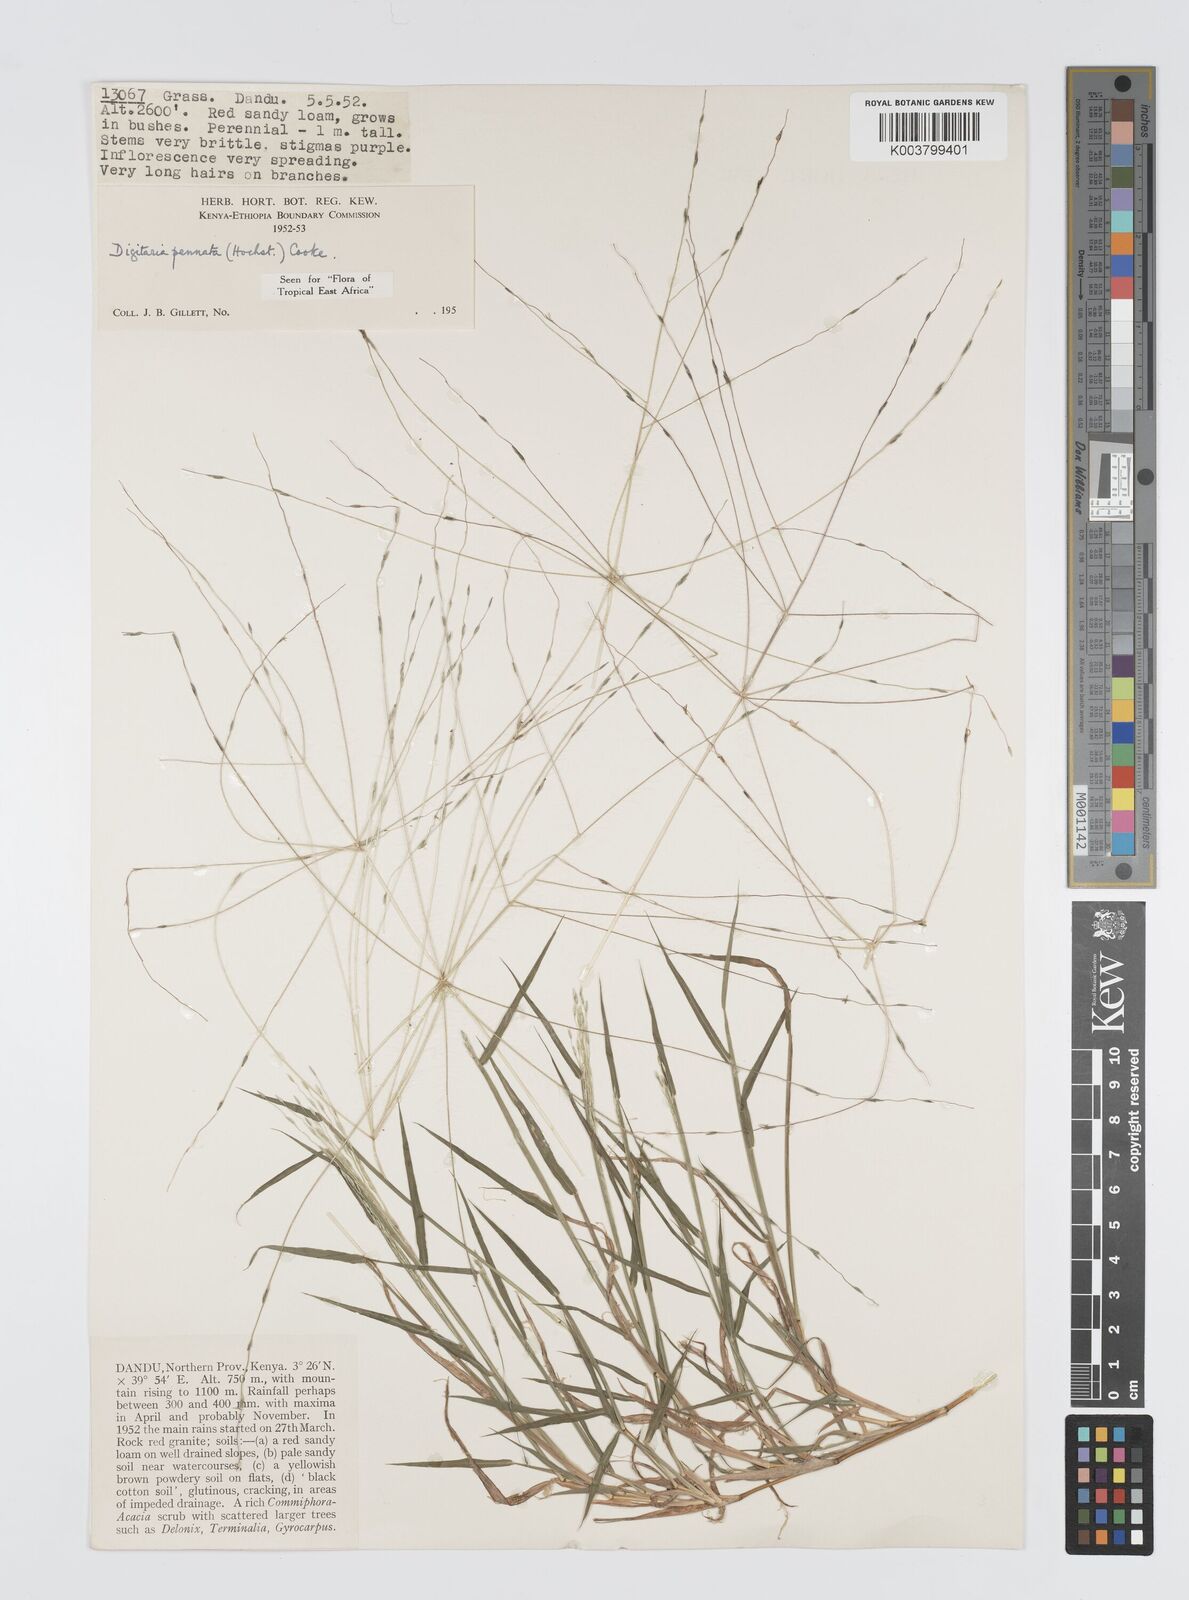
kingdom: Plantae
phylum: Tracheophyta
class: Liliopsida
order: Poales
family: Poaceae
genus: Digitaria
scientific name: Digitaria
